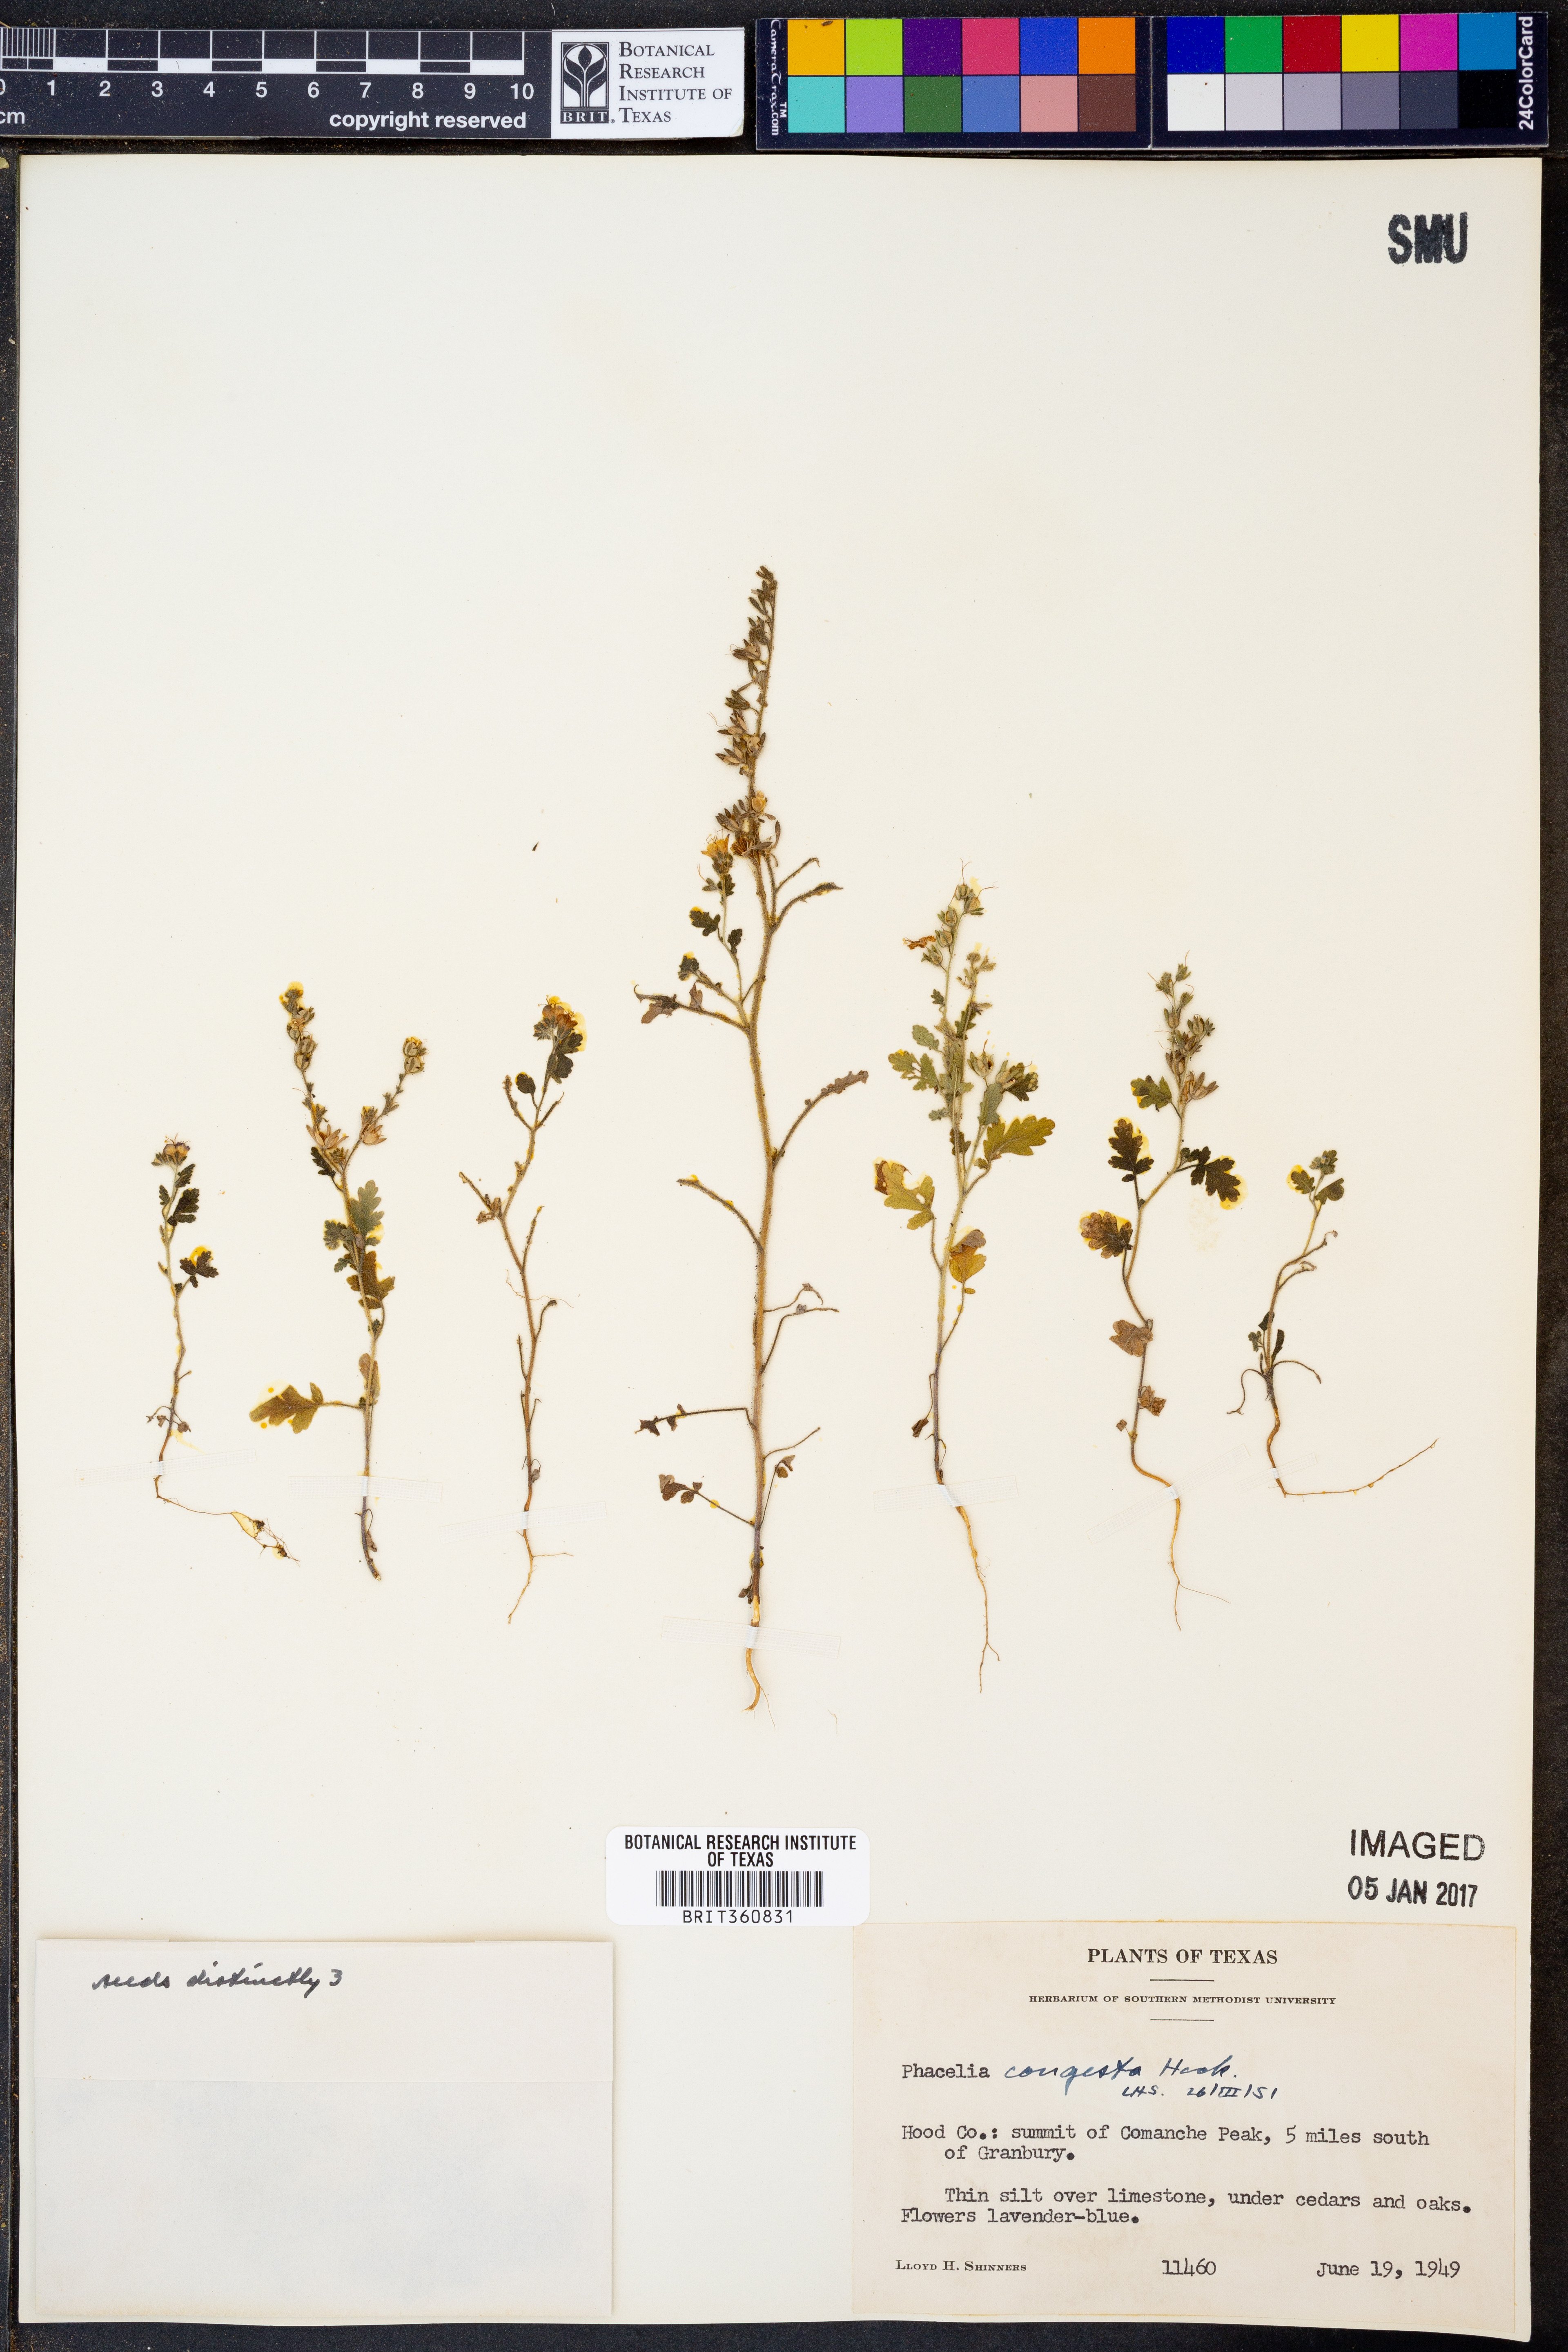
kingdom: Plantae
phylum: Tracheophyta
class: Magnoliopsida
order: Boraginales
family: Hydrophyllaceae
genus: Phacelia
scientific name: Phacelia congesta
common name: Blue curls
